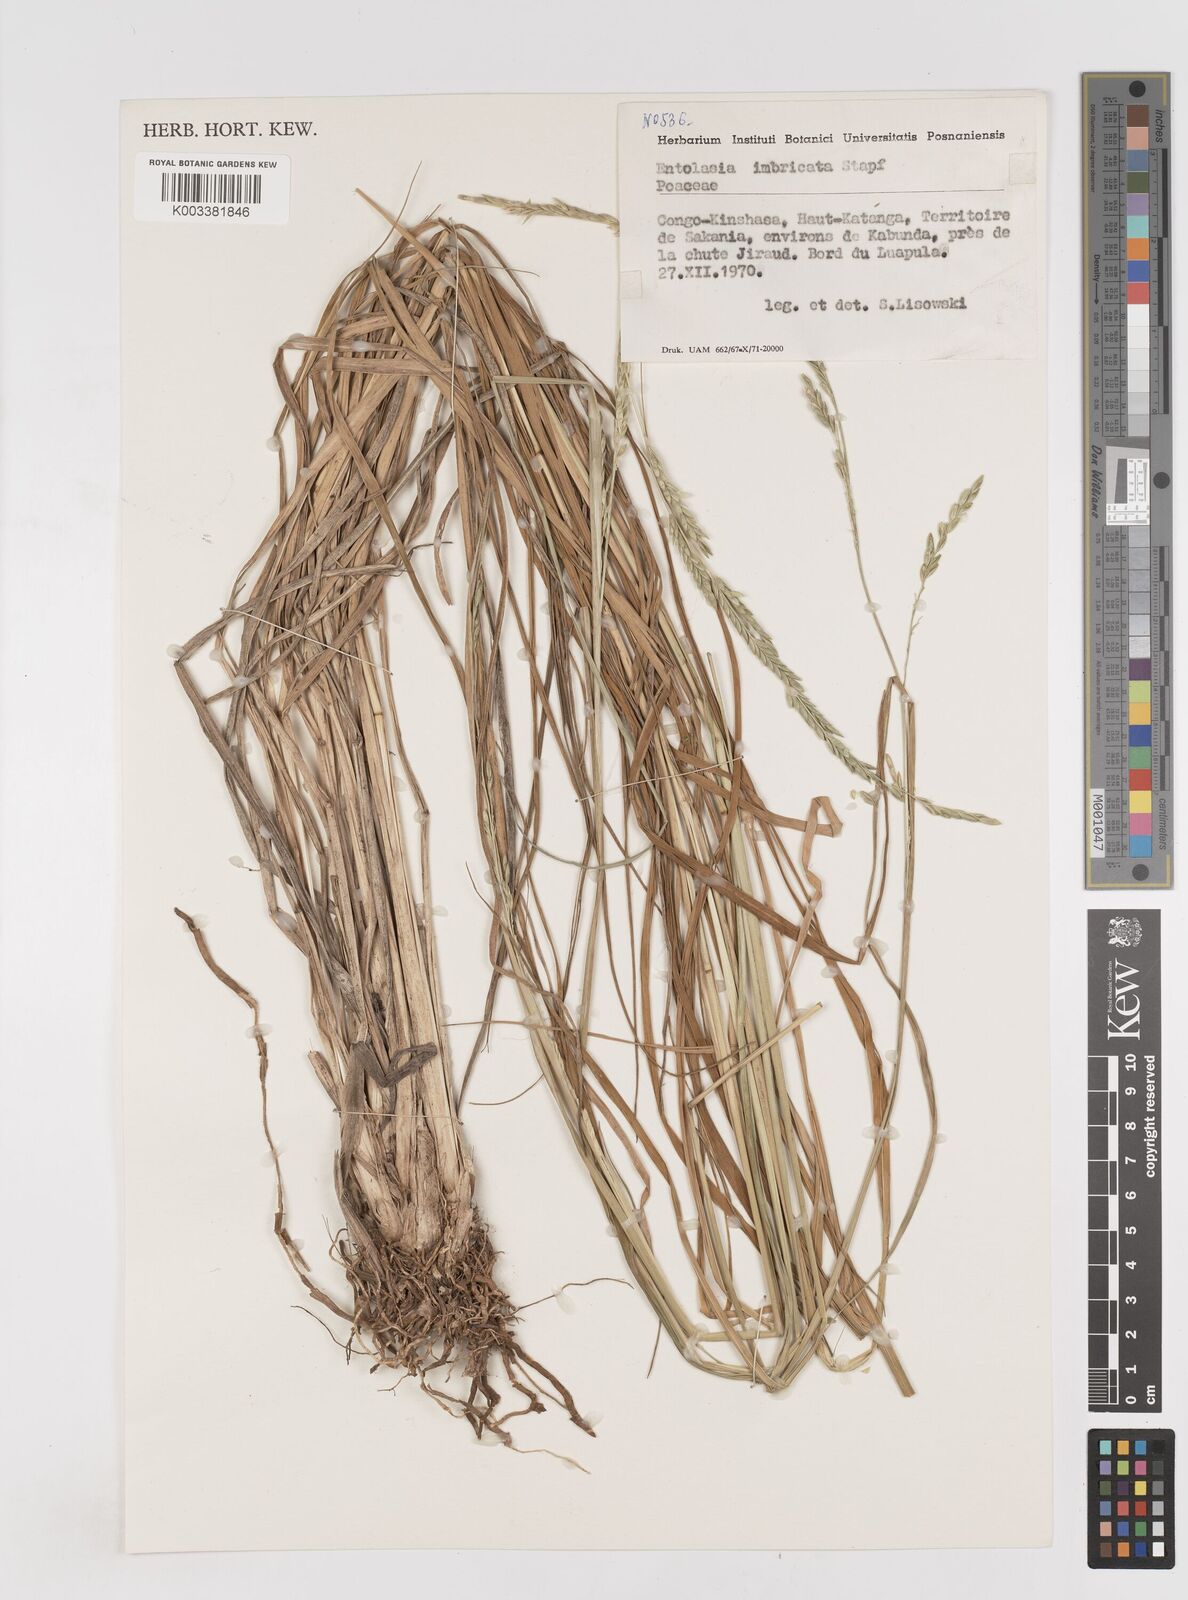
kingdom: Plantae
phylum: Tracheophyta
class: Liliopsida
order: Poales
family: Poaceae
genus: Entolasia
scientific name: Entolasia imbricata
